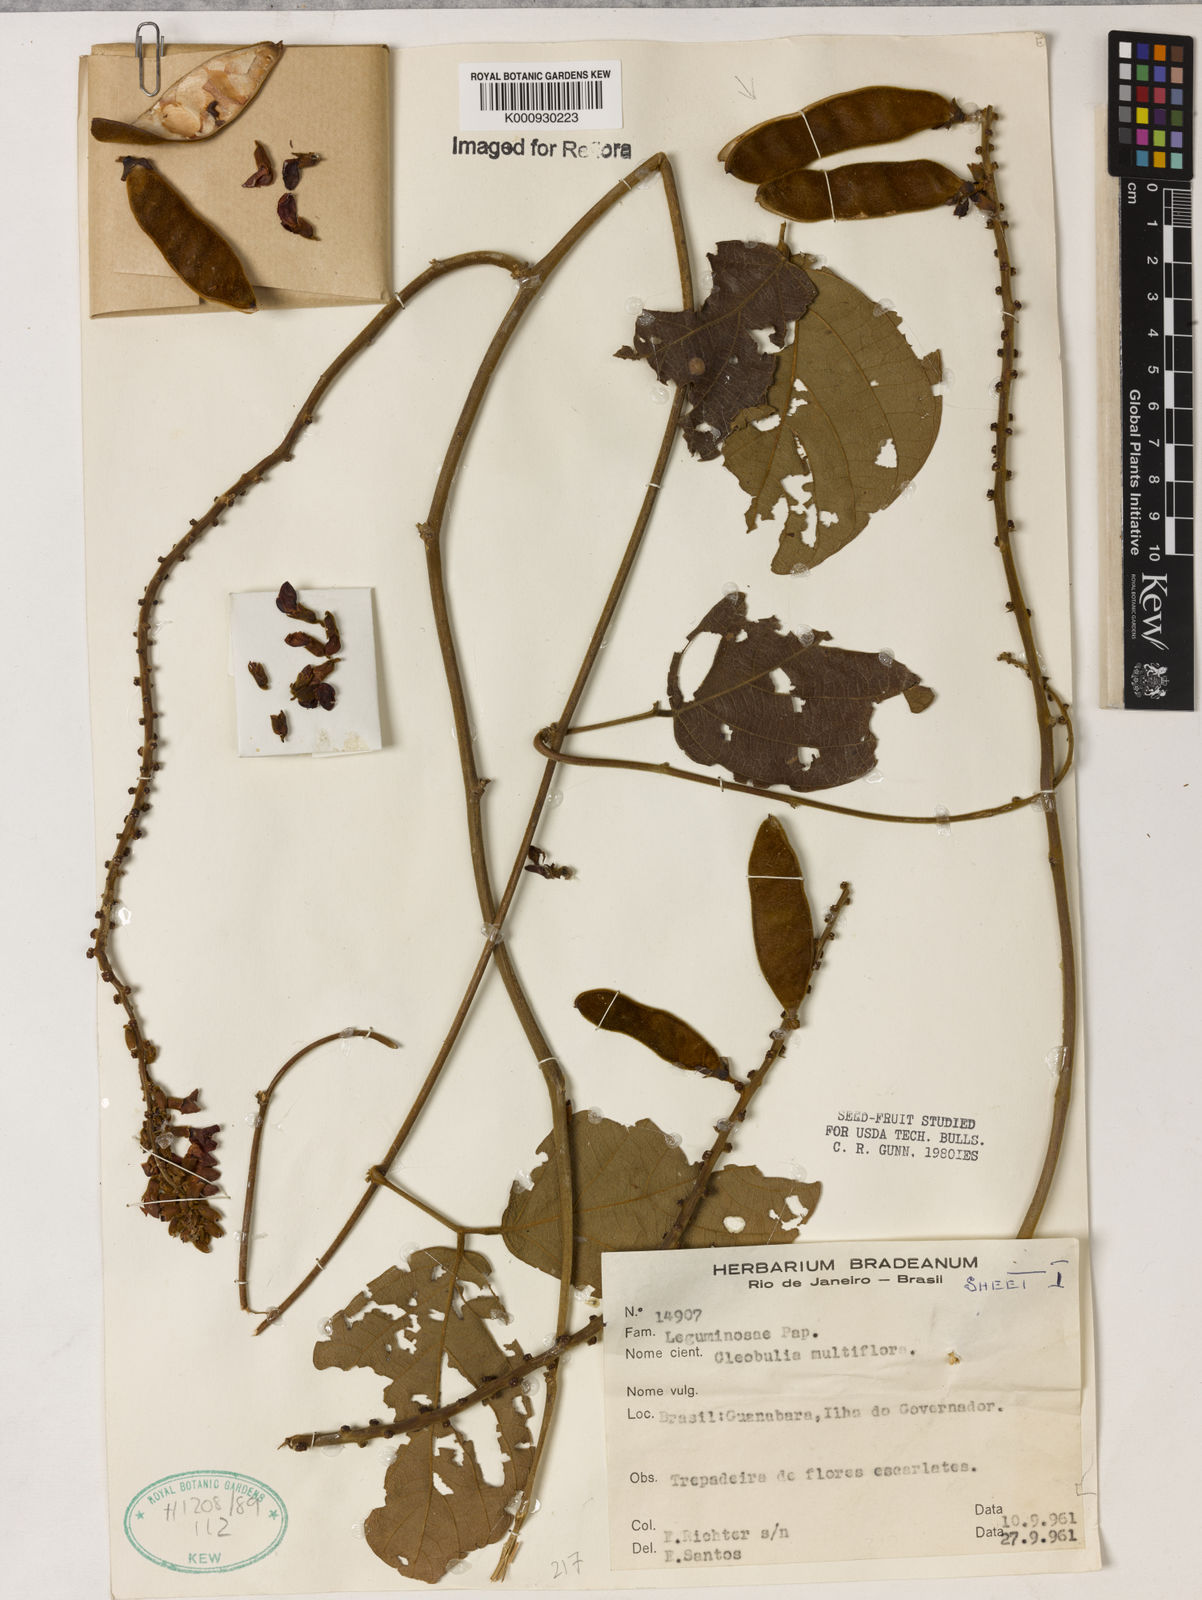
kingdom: Plantae
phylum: Tracheophyta
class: Magnoliopsida
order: Fabales
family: Fabaceae
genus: Cleobulia
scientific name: Cleobulia coccinea
